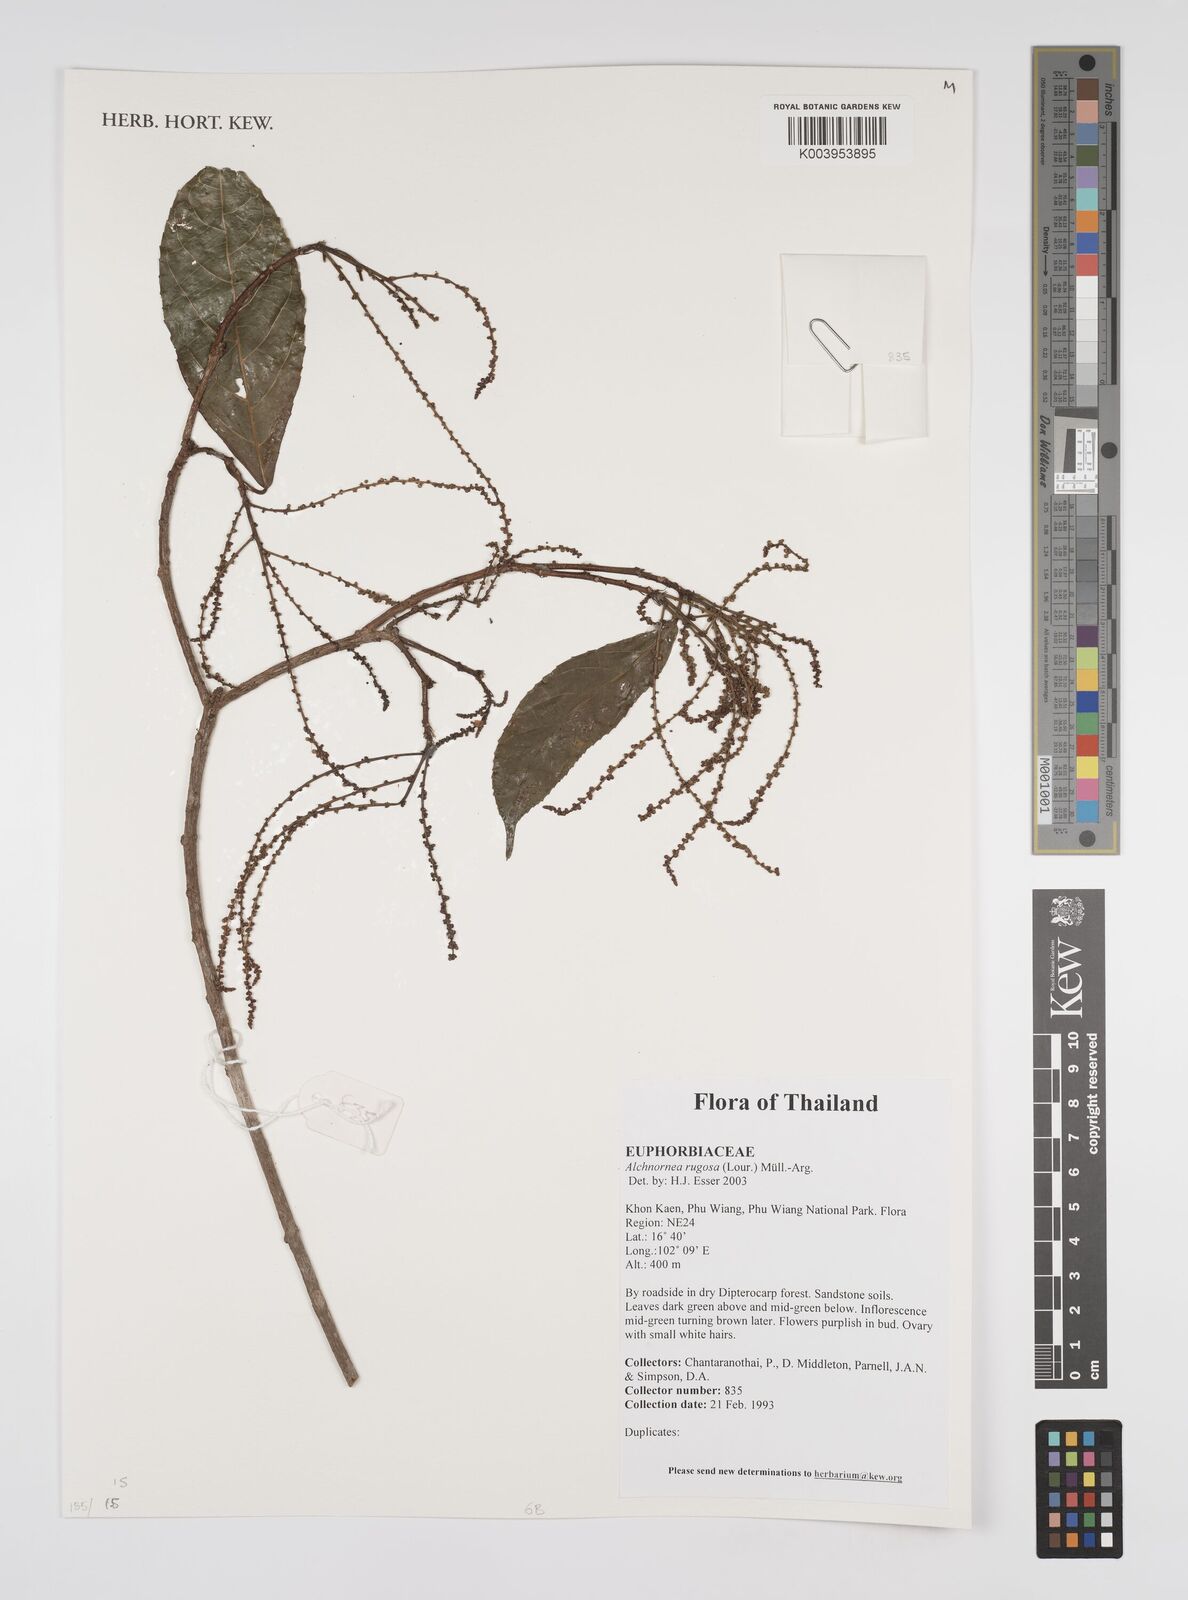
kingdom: Plantae
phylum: Tracheophyta
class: Magnoliopsida
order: Malpighiales
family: Euphorbiaceae
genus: Alchornea
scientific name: Alchornea rugosa
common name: Alchorntree
